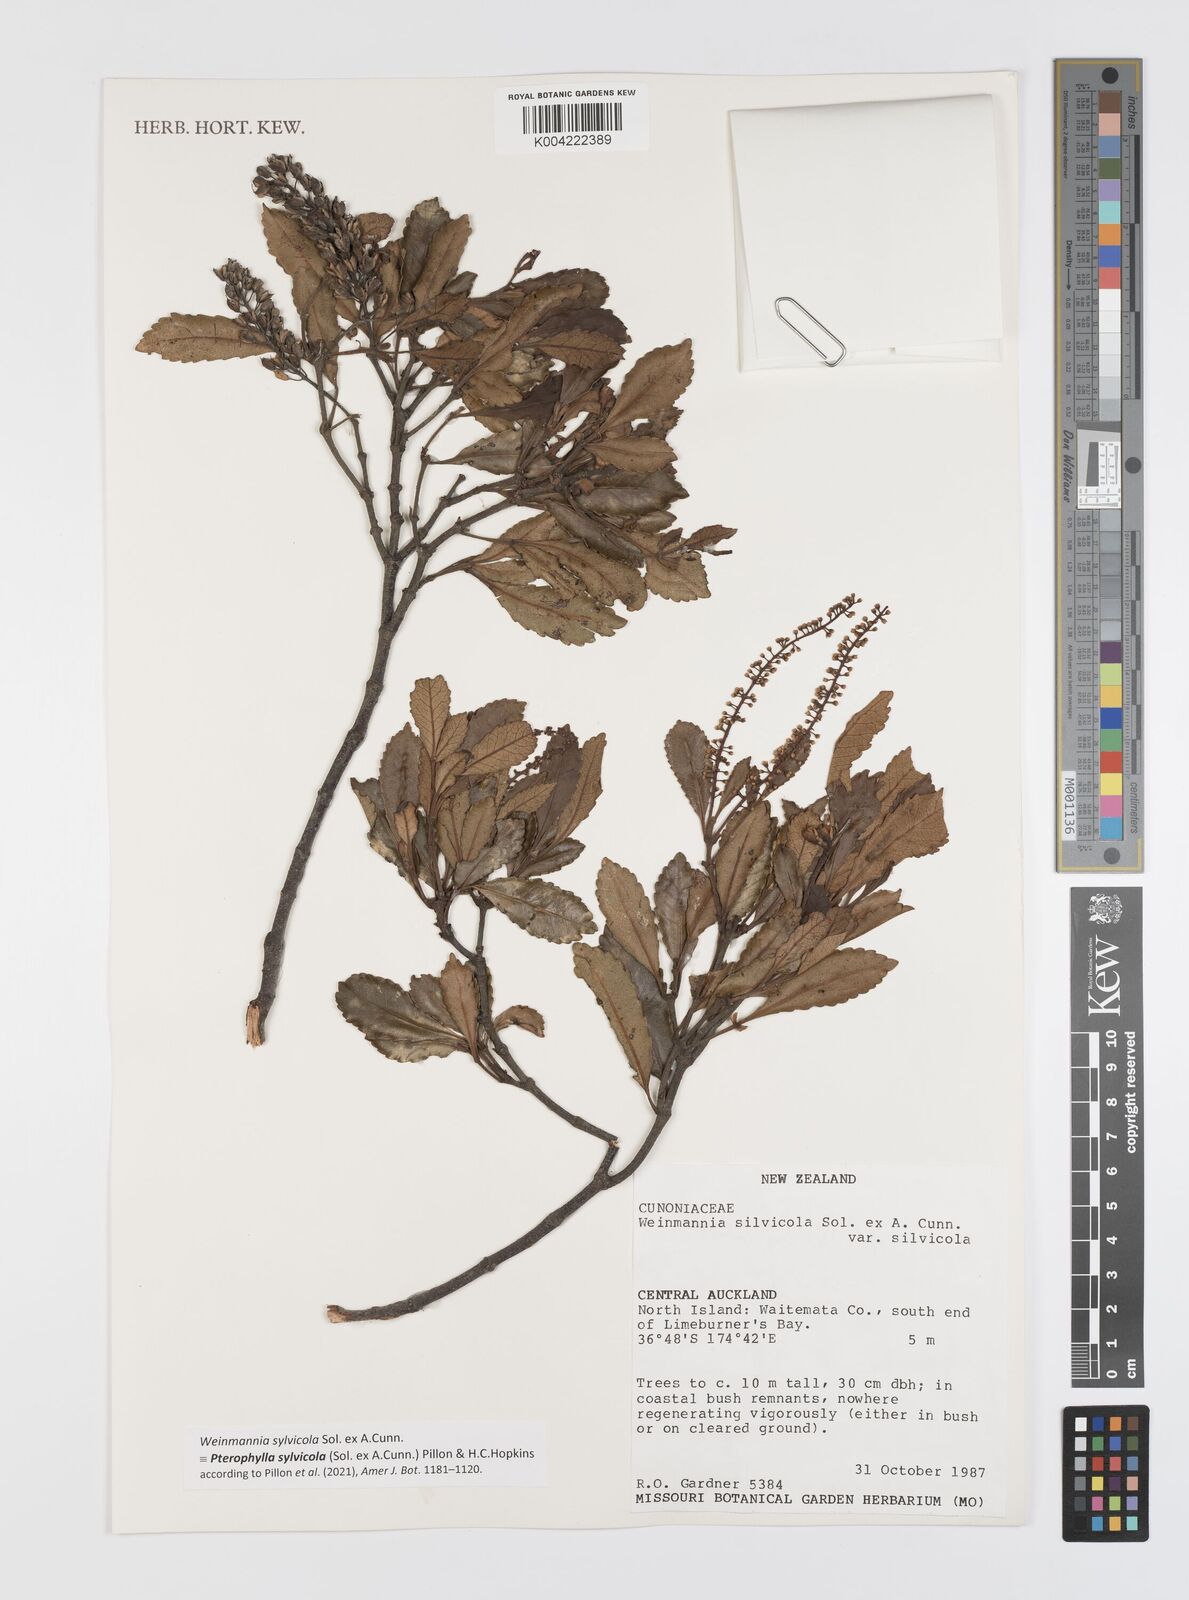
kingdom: Plantae
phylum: Tracheophyta
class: Magnoliopsida
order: Oxalidales
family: Cunoniaceae
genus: Pterophylla
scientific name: Pterophylla sylvicola
